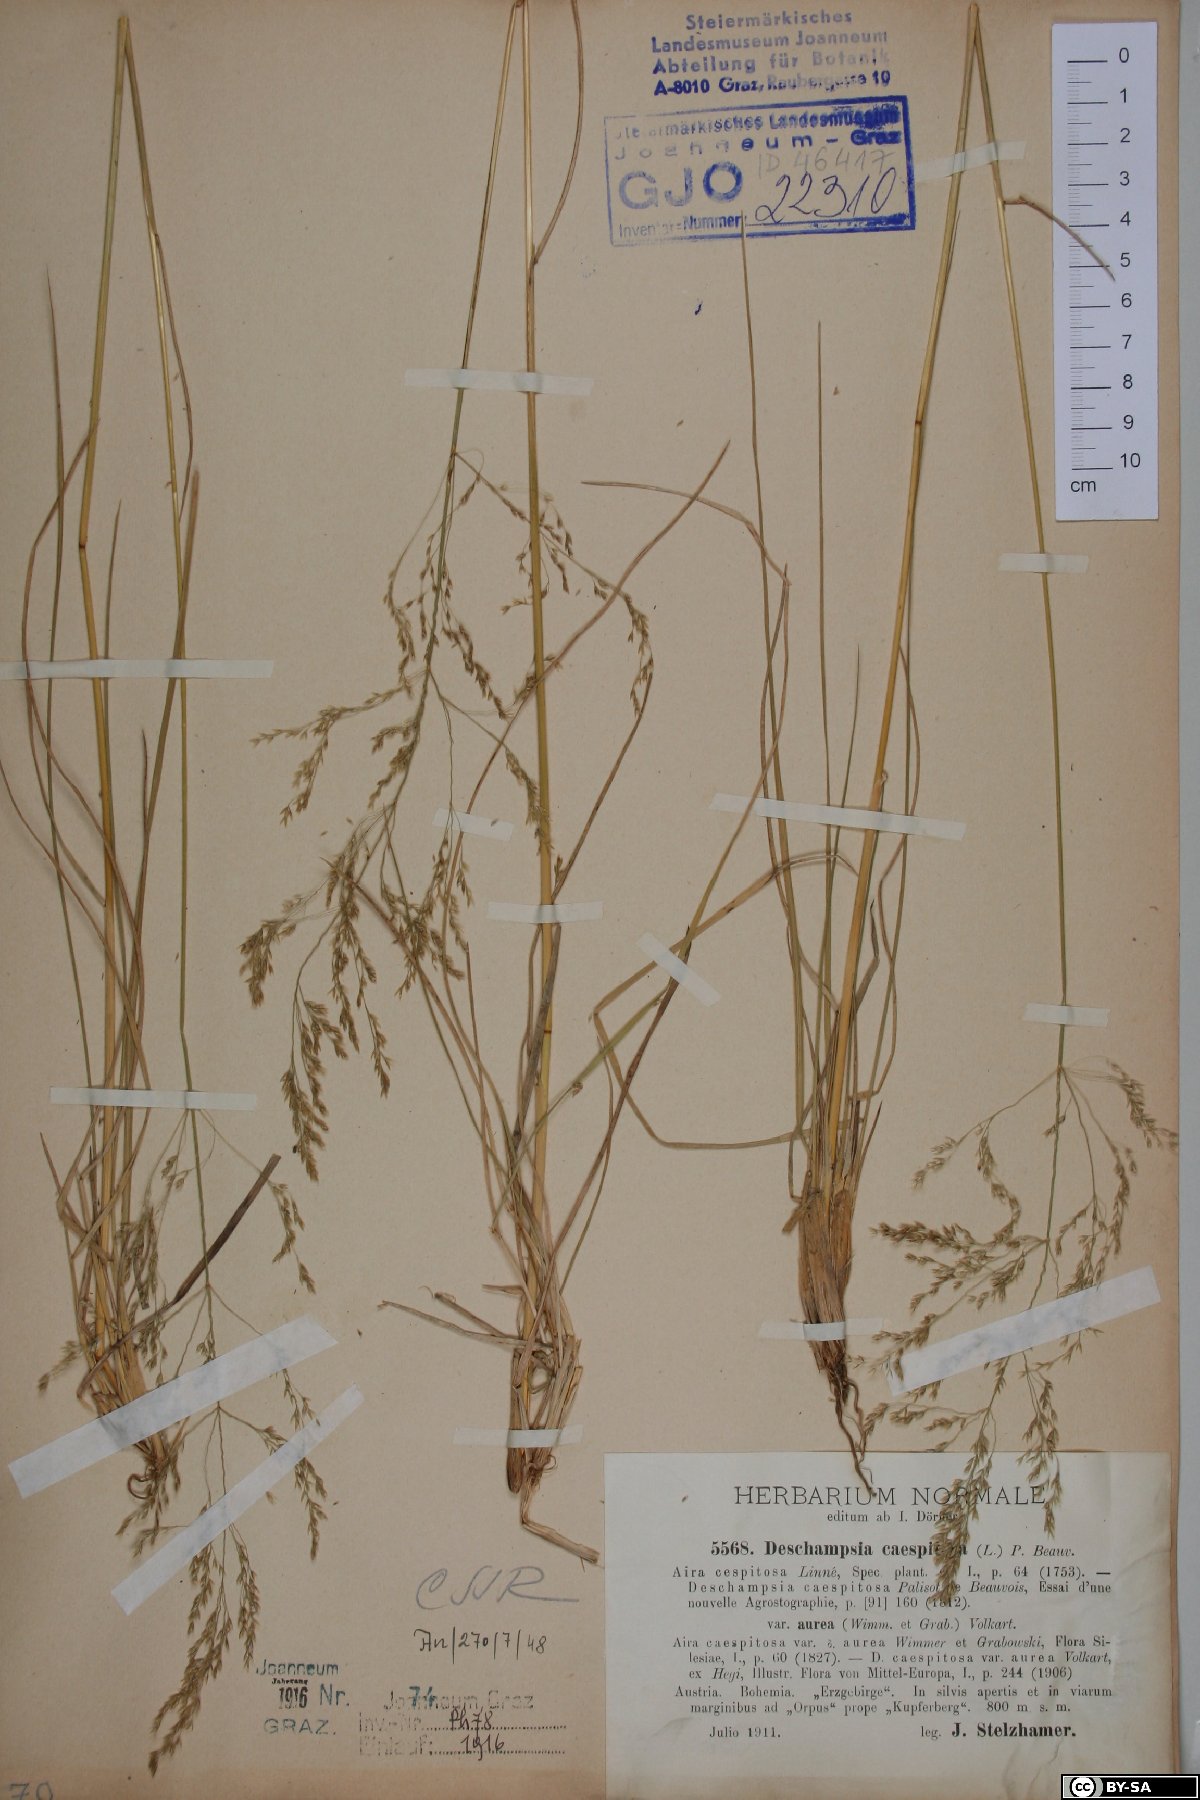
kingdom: Plantae
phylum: Tracheophyta
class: Liliopsida
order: Poales
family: Poaceae
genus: Deschampsia
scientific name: Deschampsia cespitosa
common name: Tufted hair-grass
